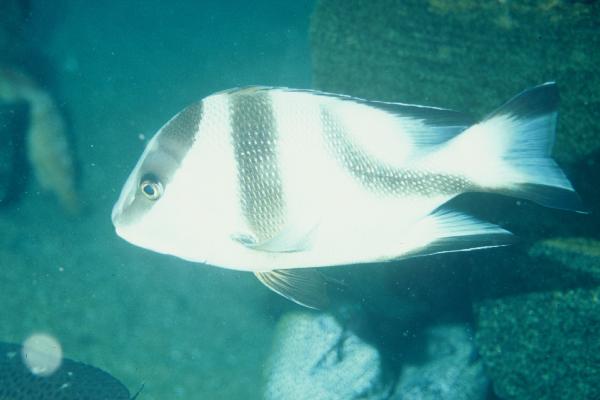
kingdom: Animalia
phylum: Chordata
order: Perciformes
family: Lutjanidae
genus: Lutjanus
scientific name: Lutjanus sebae
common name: Emperor red snapper
